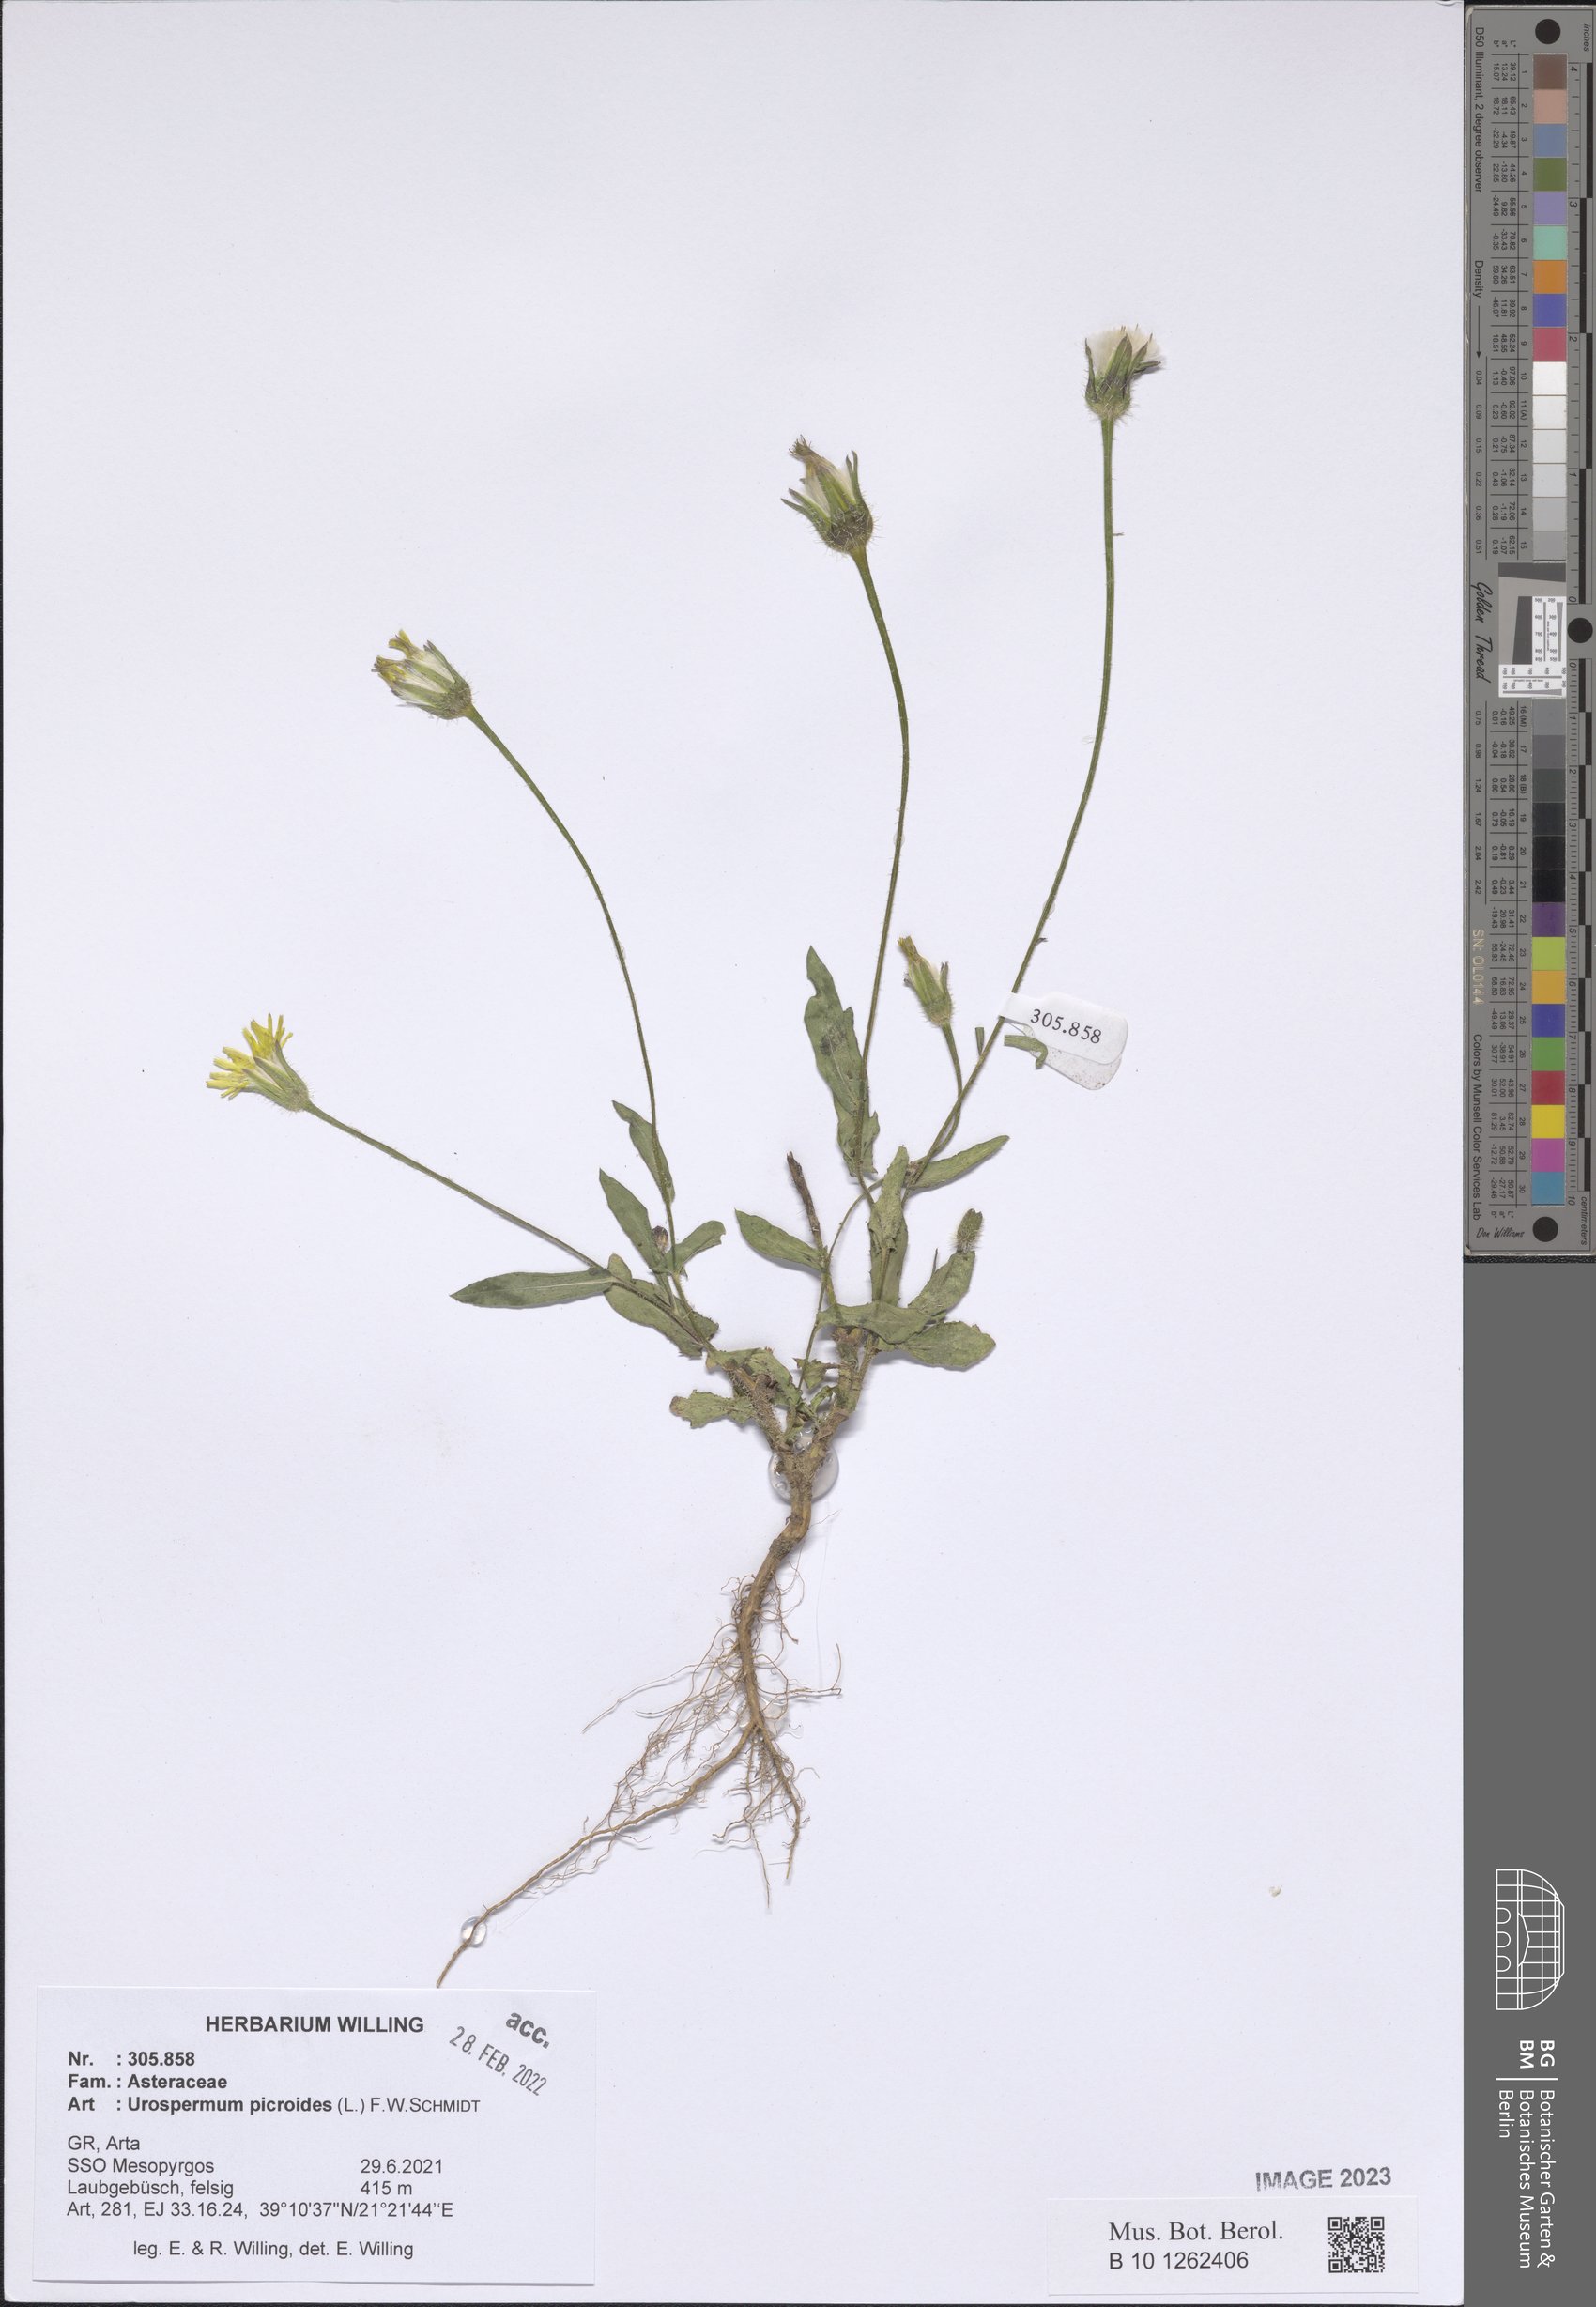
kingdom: Plantae
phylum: Tracheophyta
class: Magnoliopsida
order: Asterales
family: Asteraceae
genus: Urospermum
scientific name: Urospermum picroides
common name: False hawkbit
